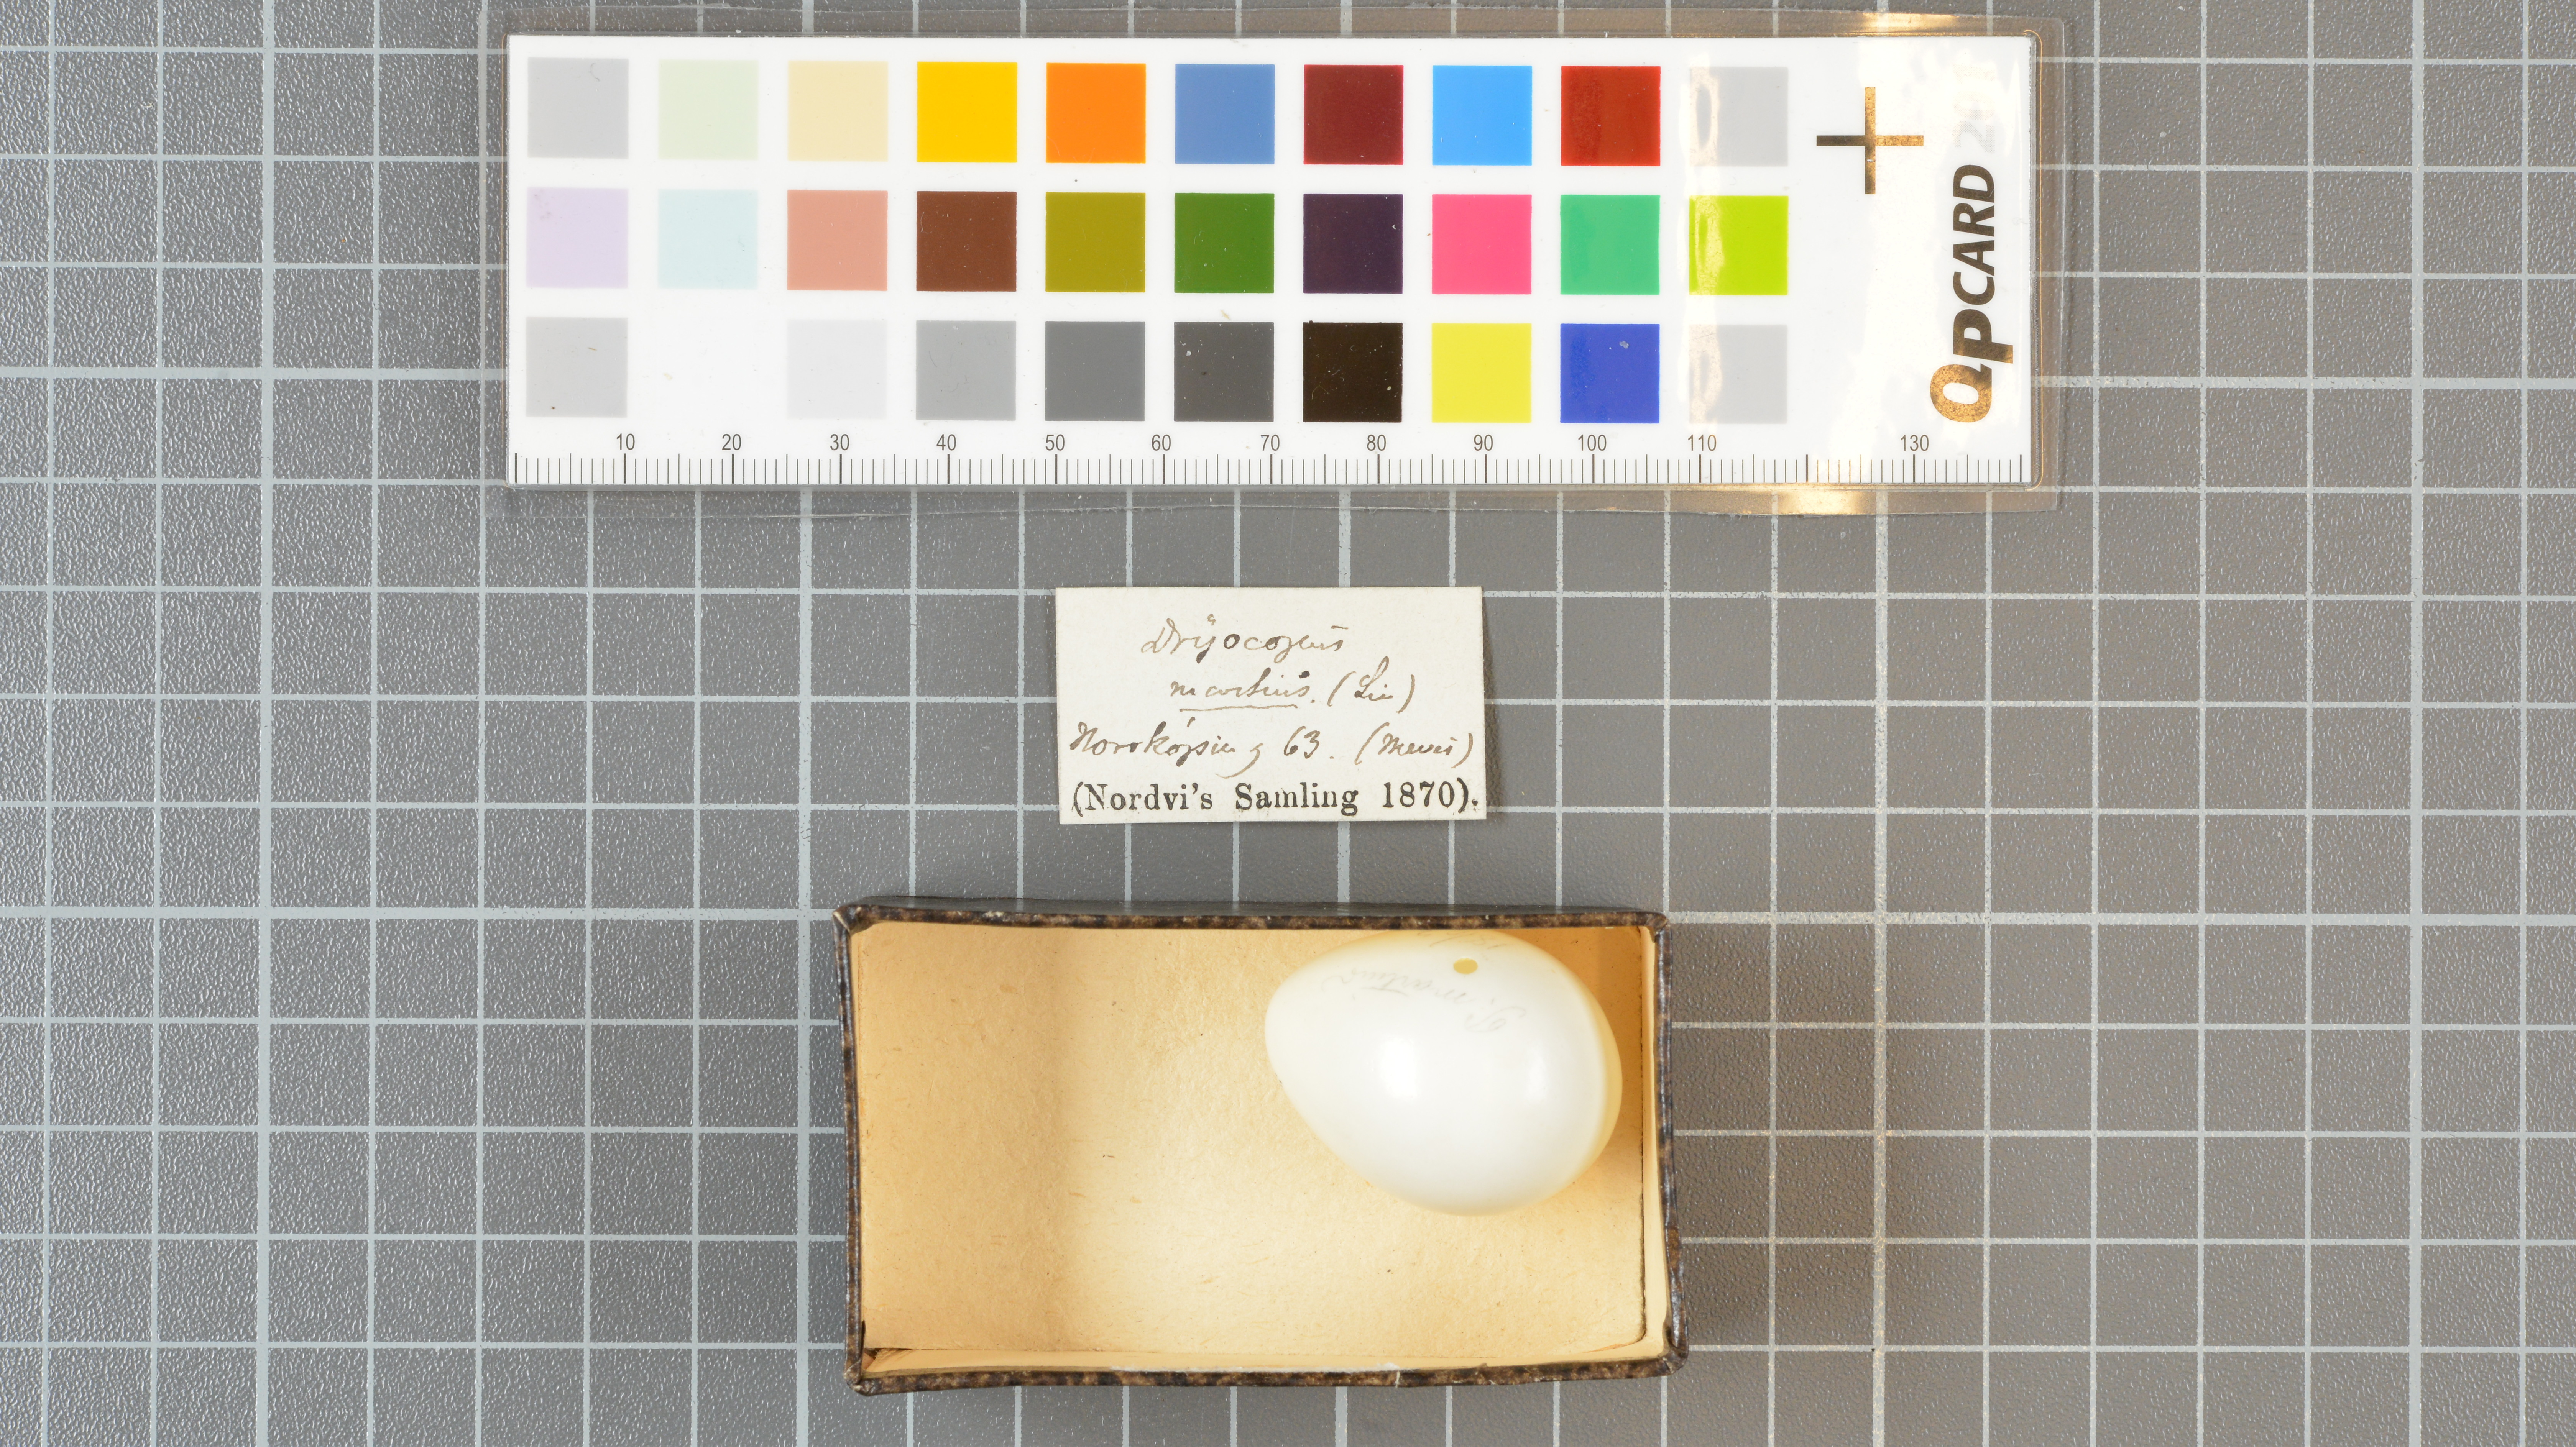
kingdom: Animalia
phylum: Chordata
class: Aves
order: Piciformes
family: Picidae
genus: Dryocopus
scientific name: Dryocopus martius
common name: Black woodpecker
